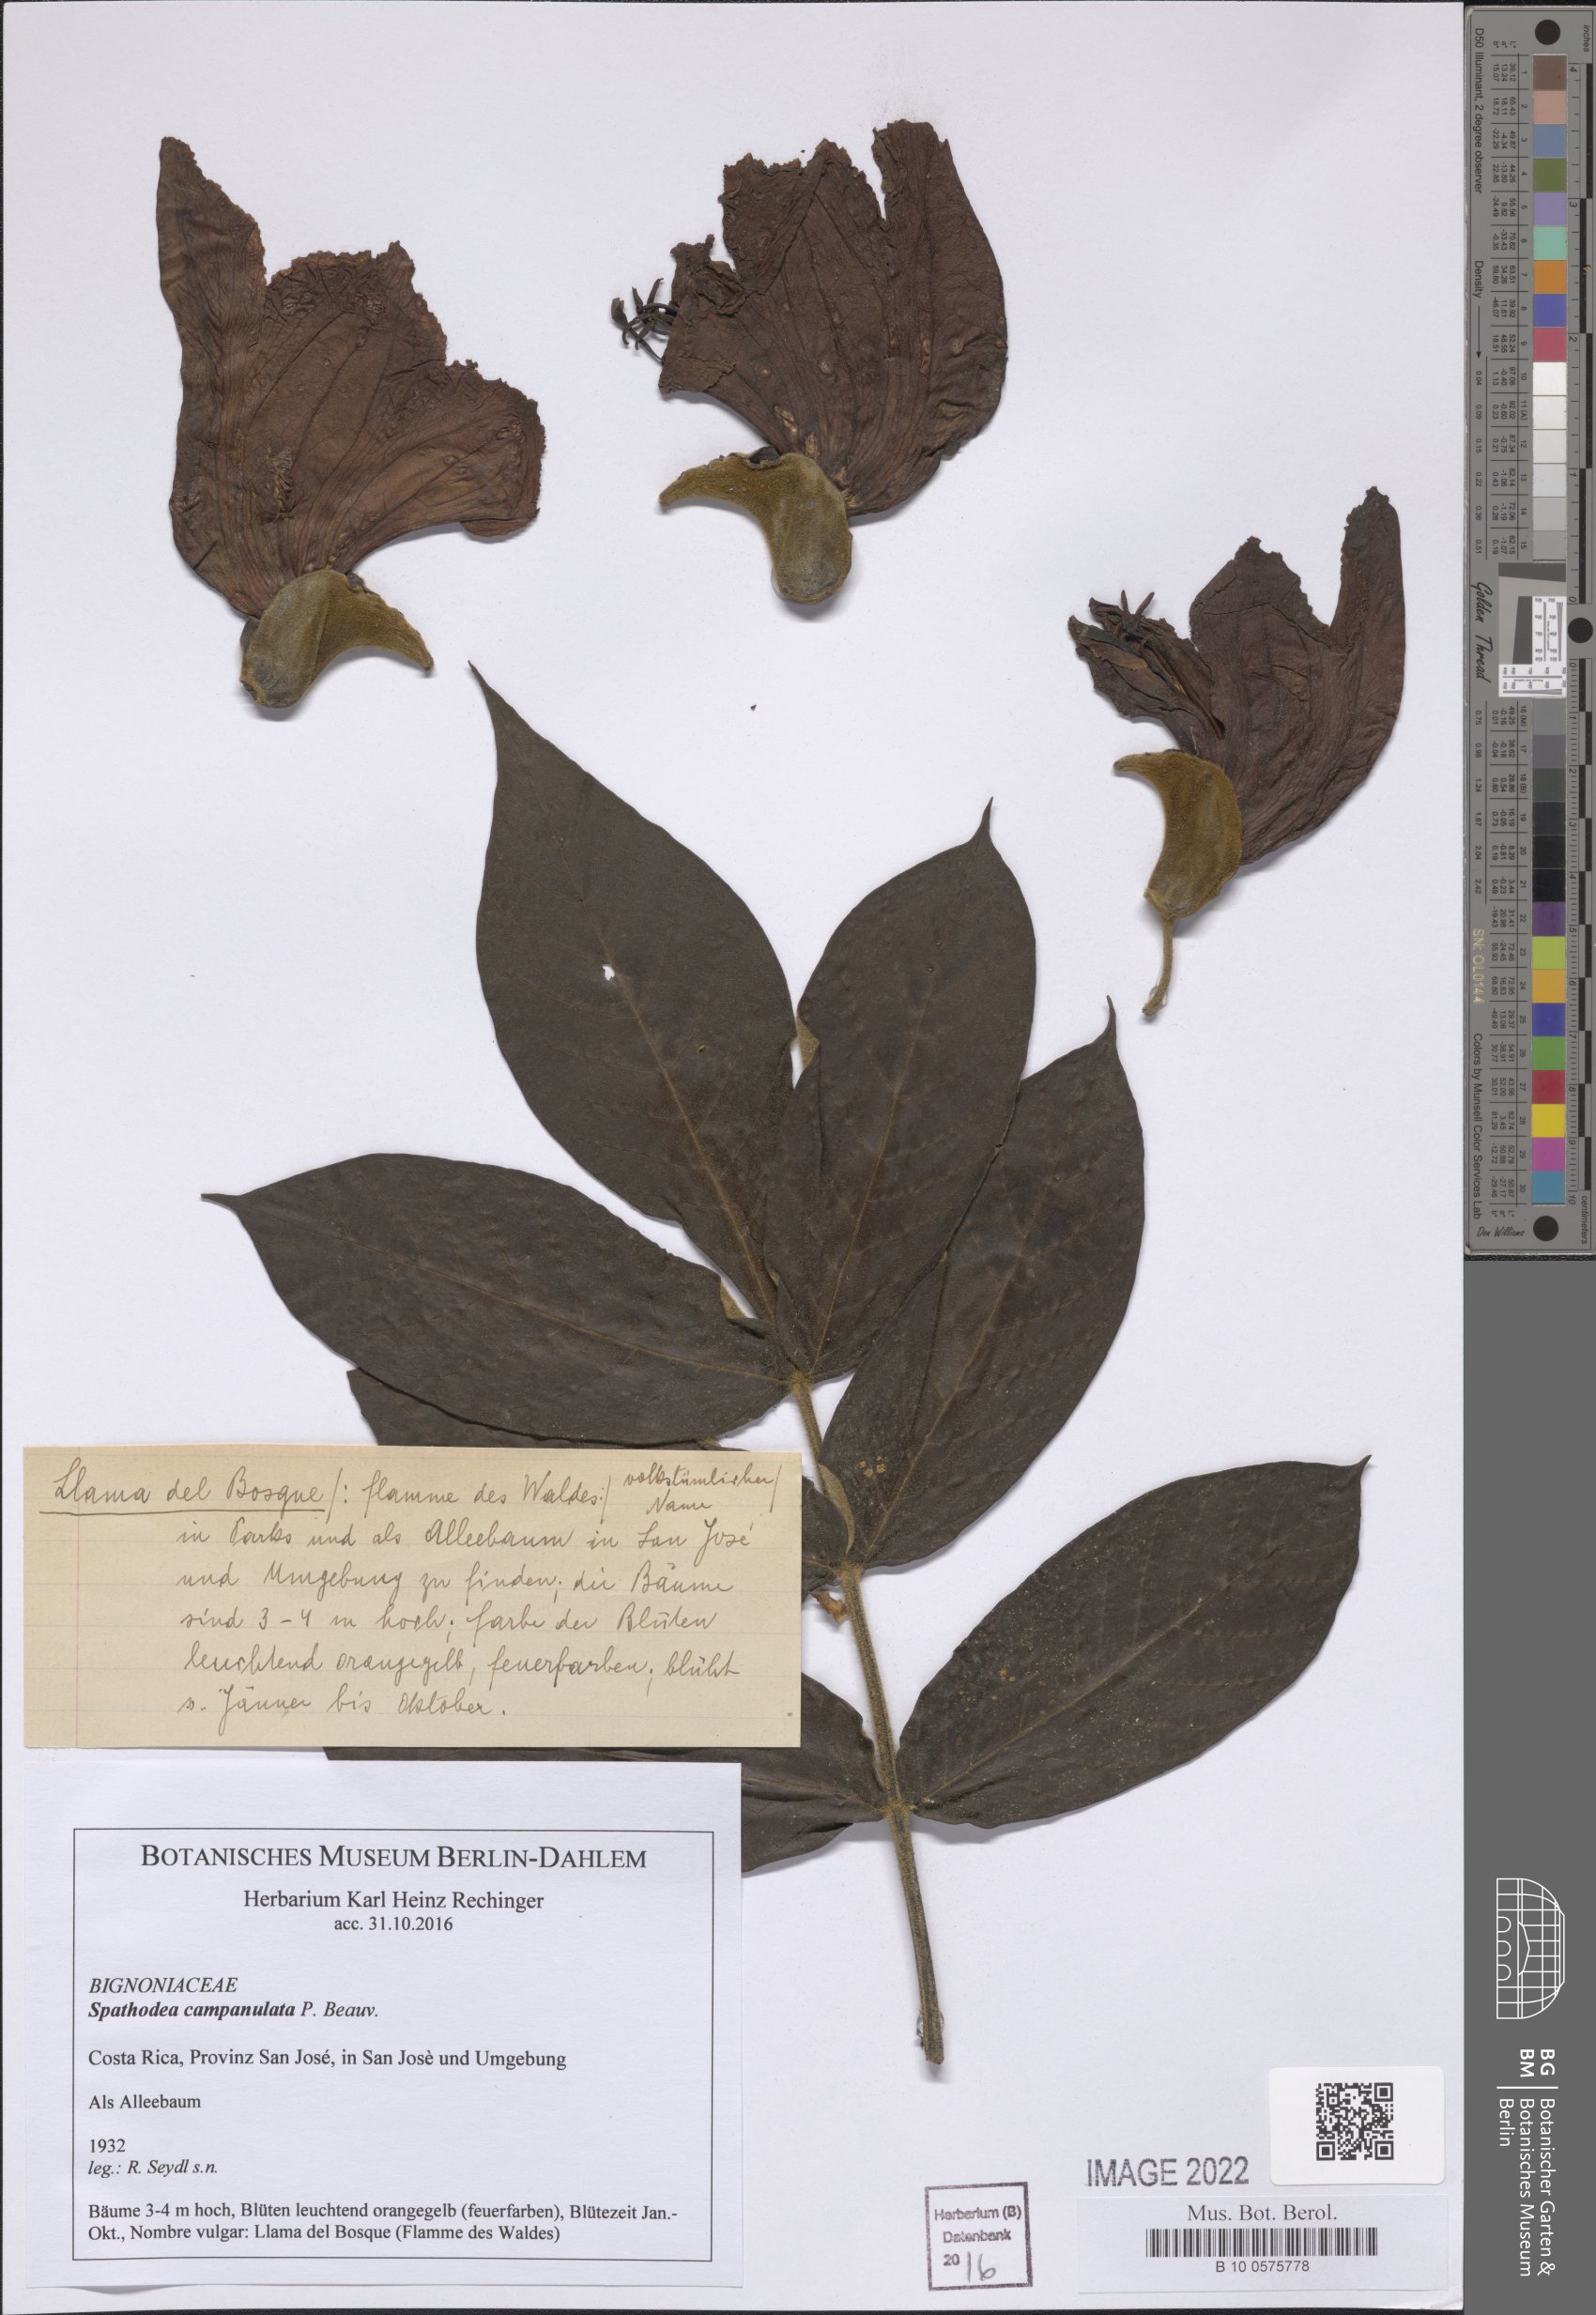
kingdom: Plantae
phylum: Tracheophyta
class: Magnoliopsida
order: Lamiales
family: Bignoniaceae
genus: Spathodea
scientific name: Spathodea campanulata
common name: African tuliptree
